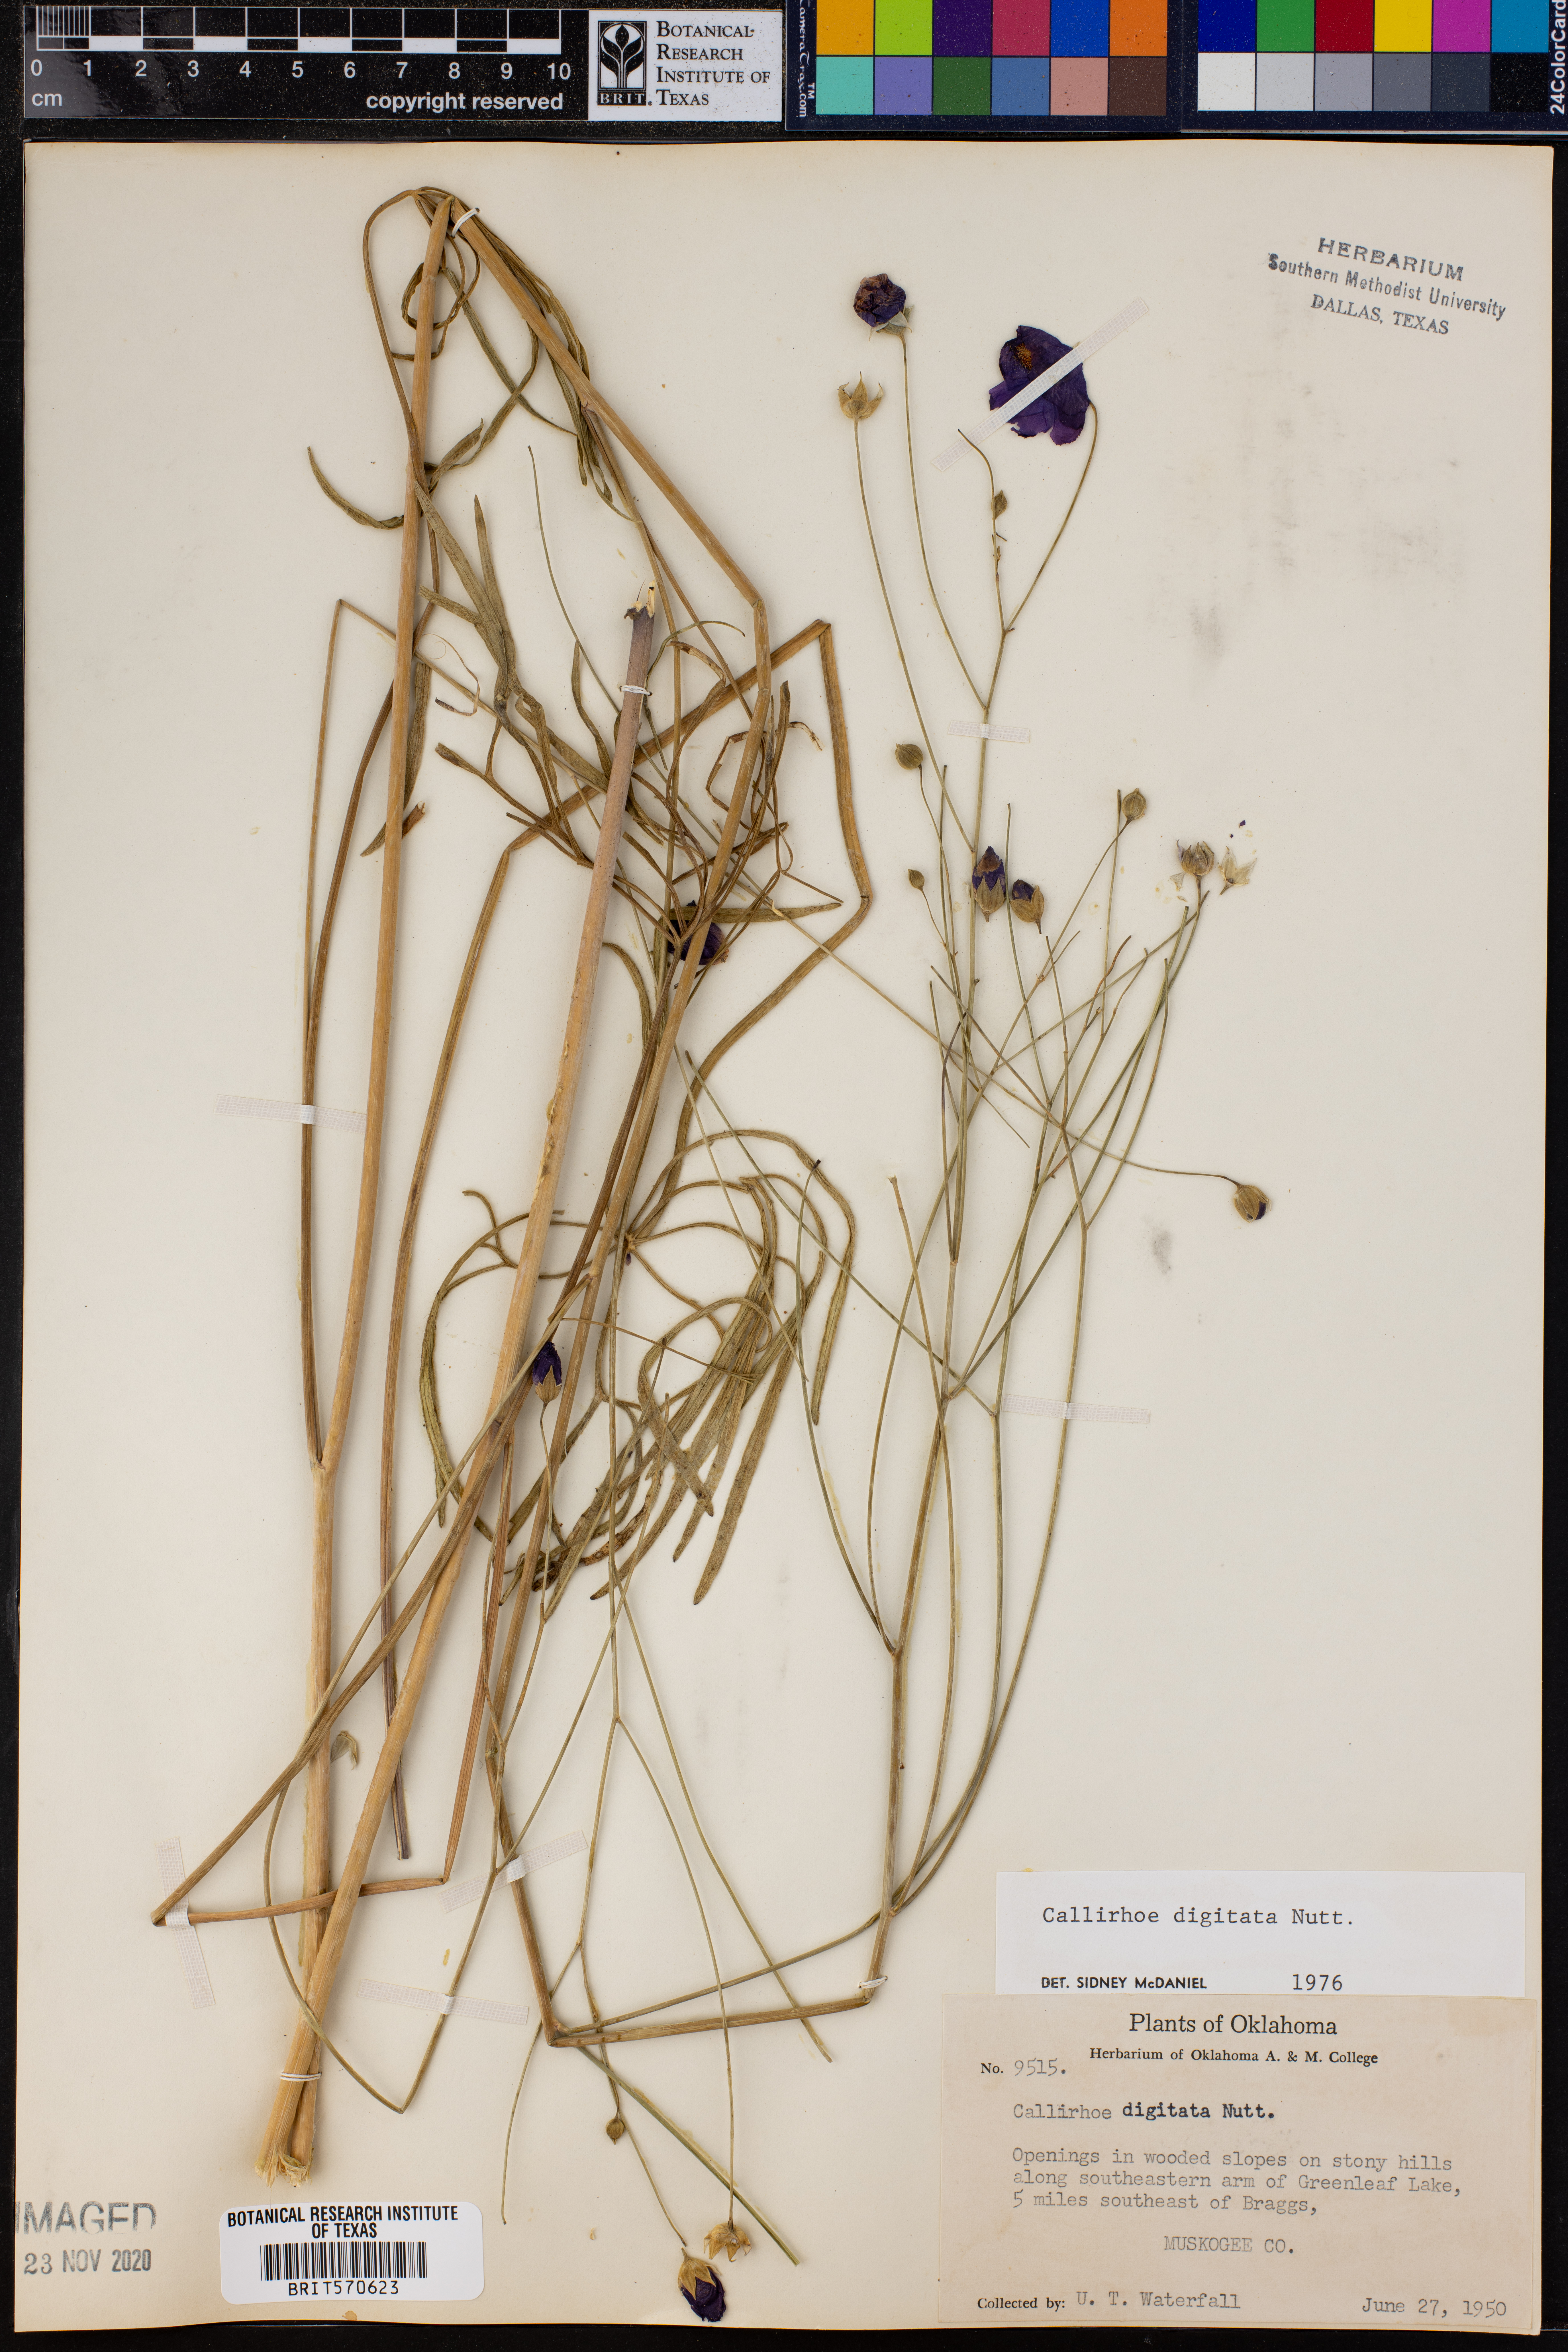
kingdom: Plantae
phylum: Tracheophyta
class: Magnoliopsida
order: Malvales
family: Malvaceae
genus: Callirhoe
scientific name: Callirhoe digitata
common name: Finger poppy-mallow
